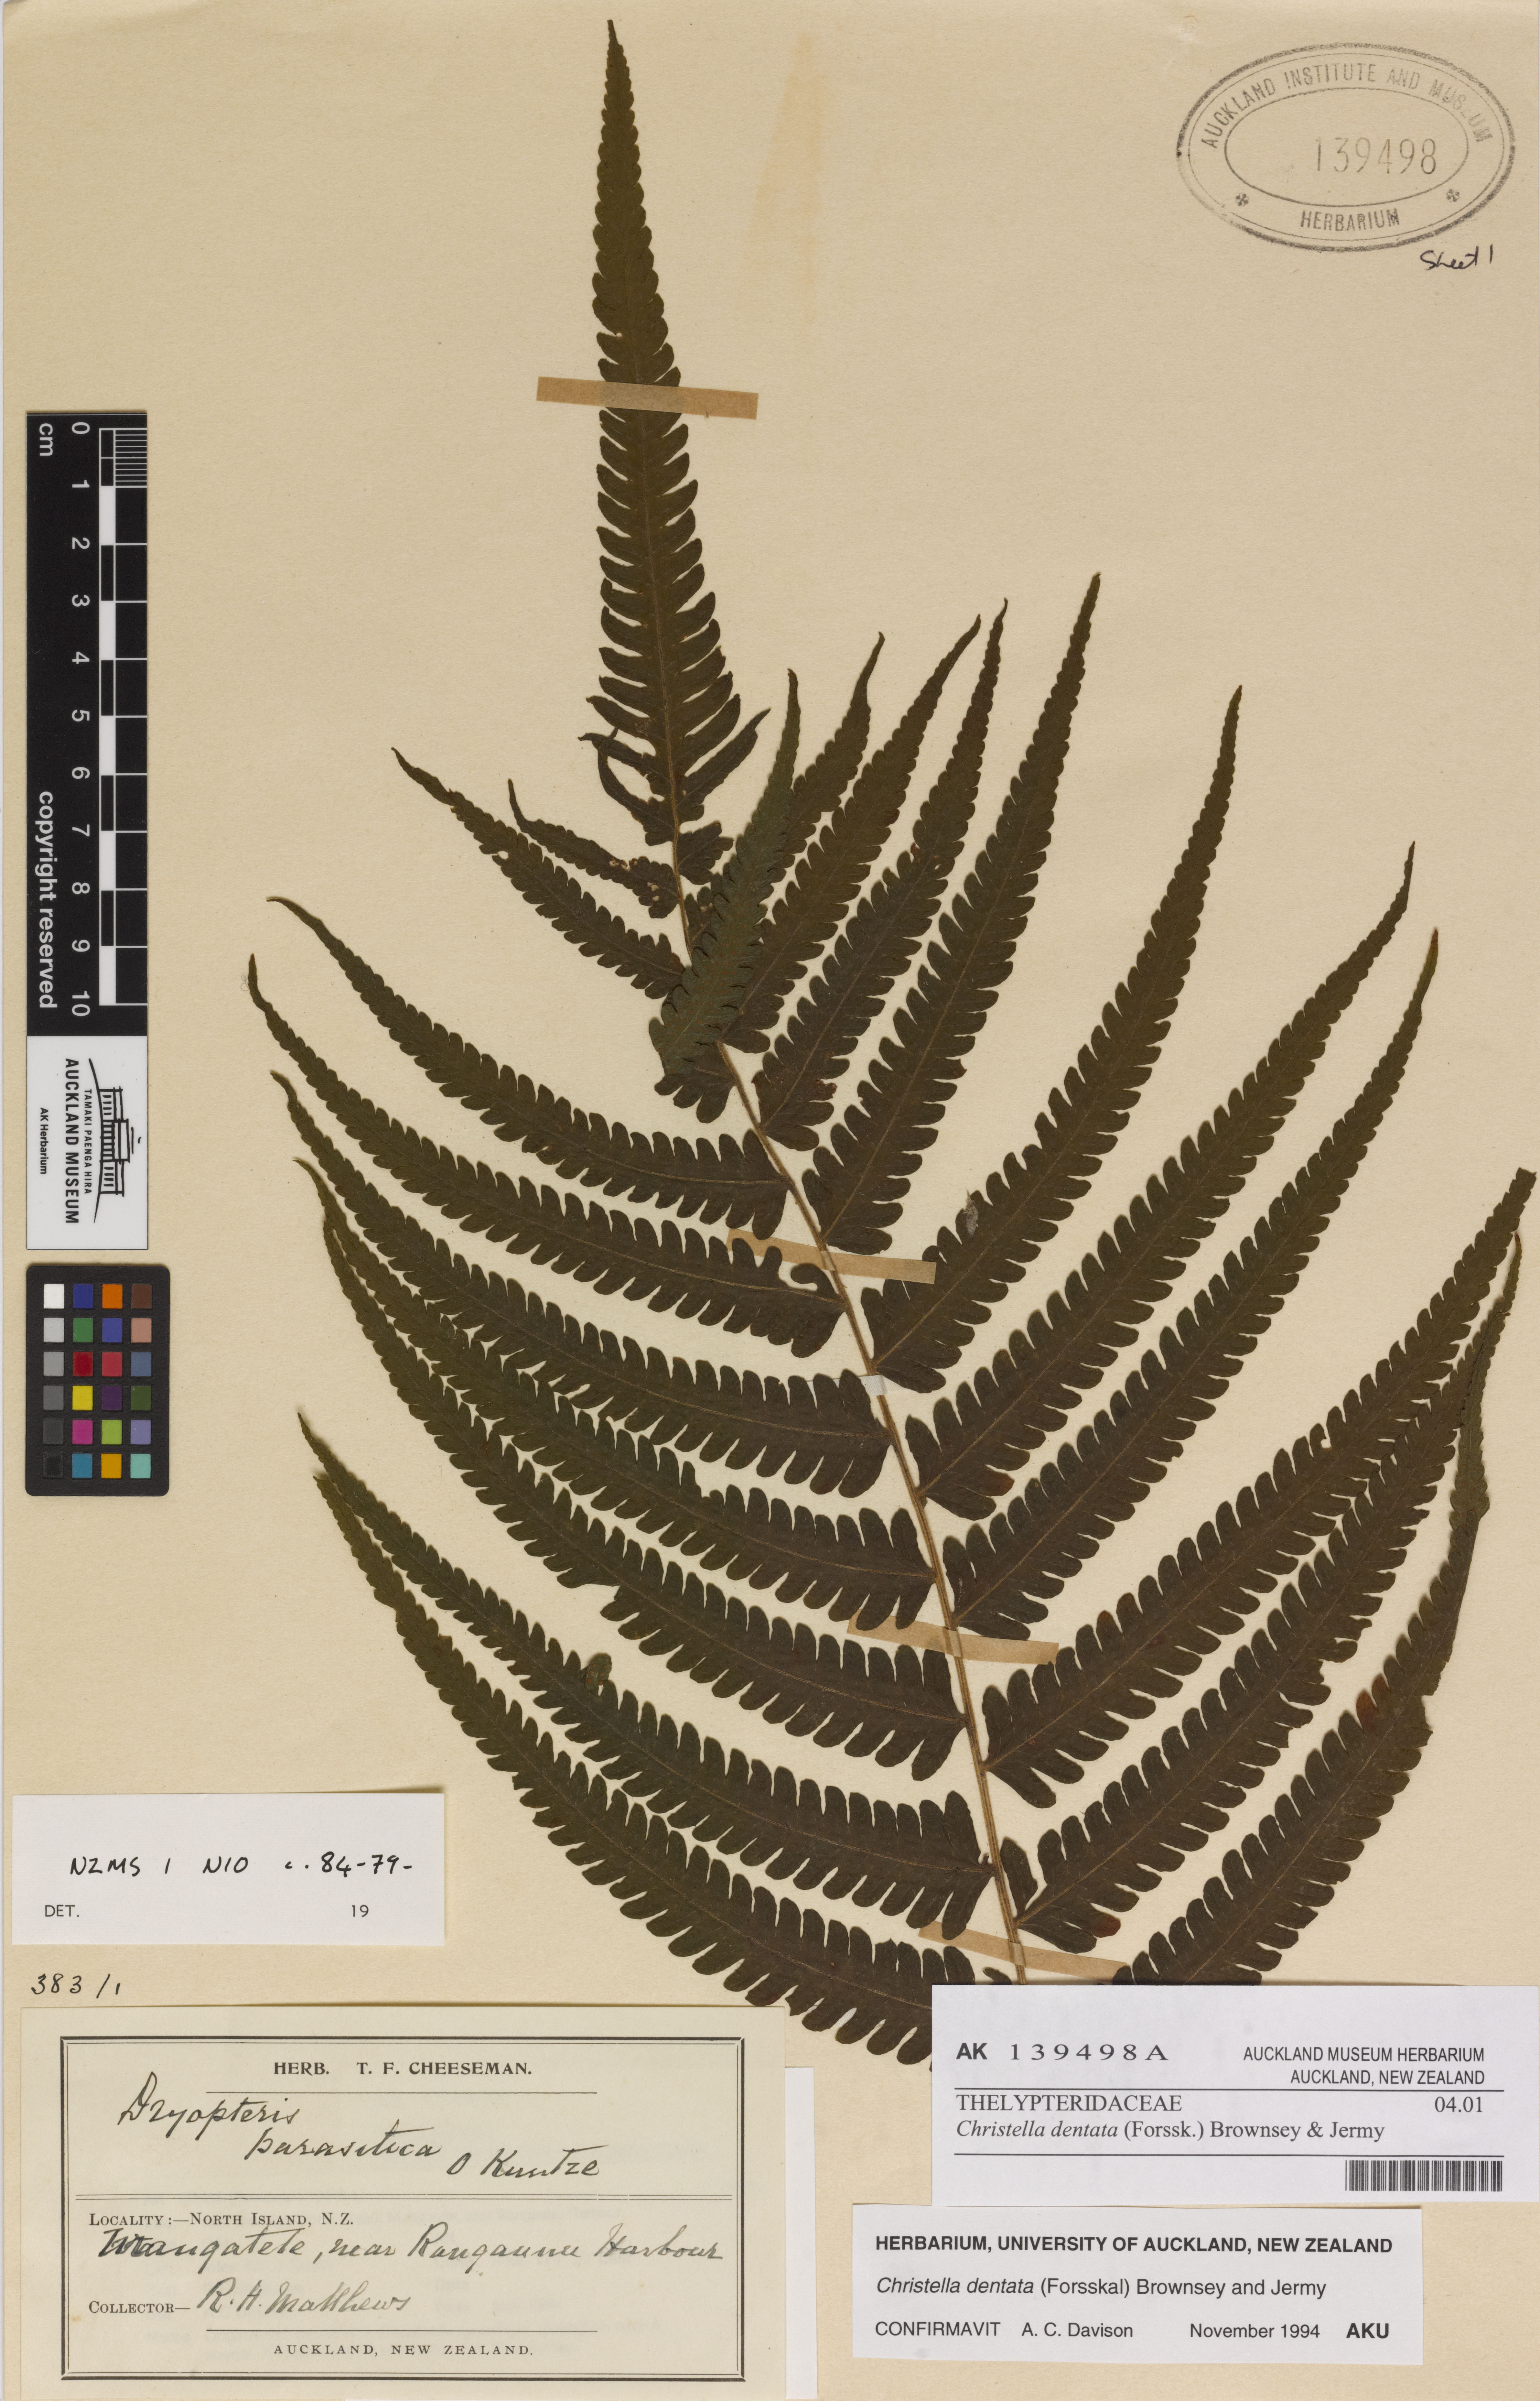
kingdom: Plantae
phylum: Tracheophyta
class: Polypodiopsida
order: Polypodiales
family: Thelypteridaceae
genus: Christella
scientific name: Christella dentata
